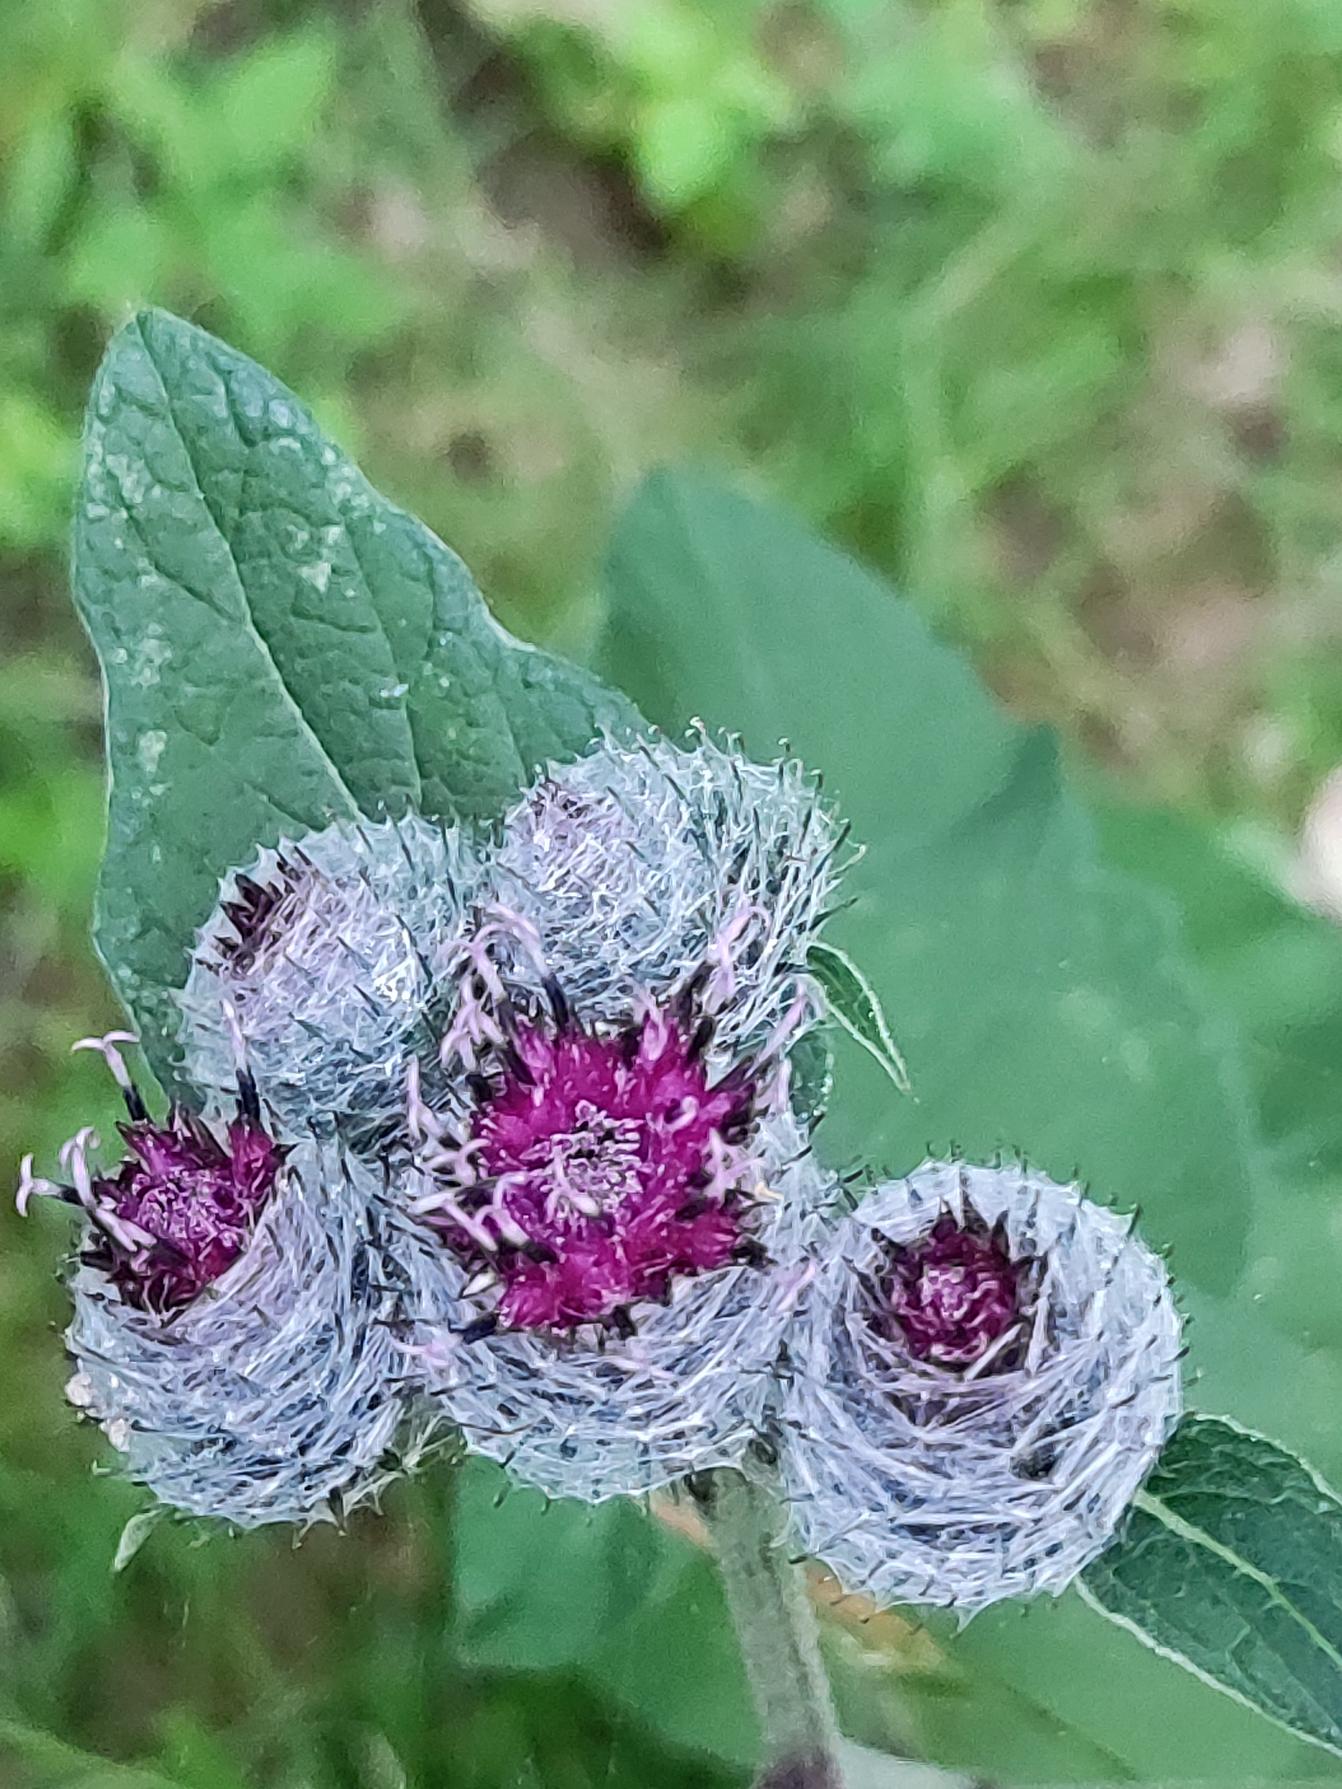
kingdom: Plantae
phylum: Tracheophyta
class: Magnoliopsida
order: Asterales
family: Asteraceae
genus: Arctium
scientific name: Arctium tomentosum
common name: Filtet burre
